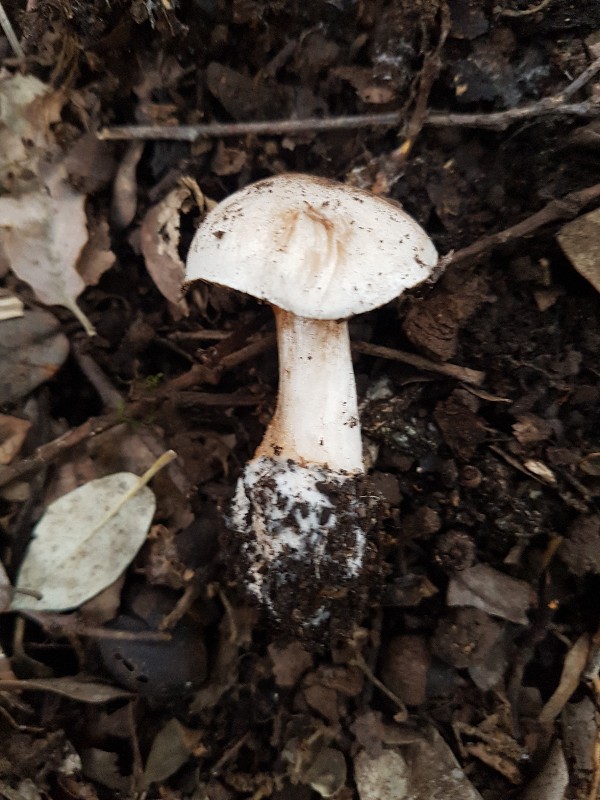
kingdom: Fungi
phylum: Basidiomycota
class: Agaricomycetes
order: Agaricales
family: Cortinariaceae
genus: Cortinarius
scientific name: Cortinarius chevassutii
